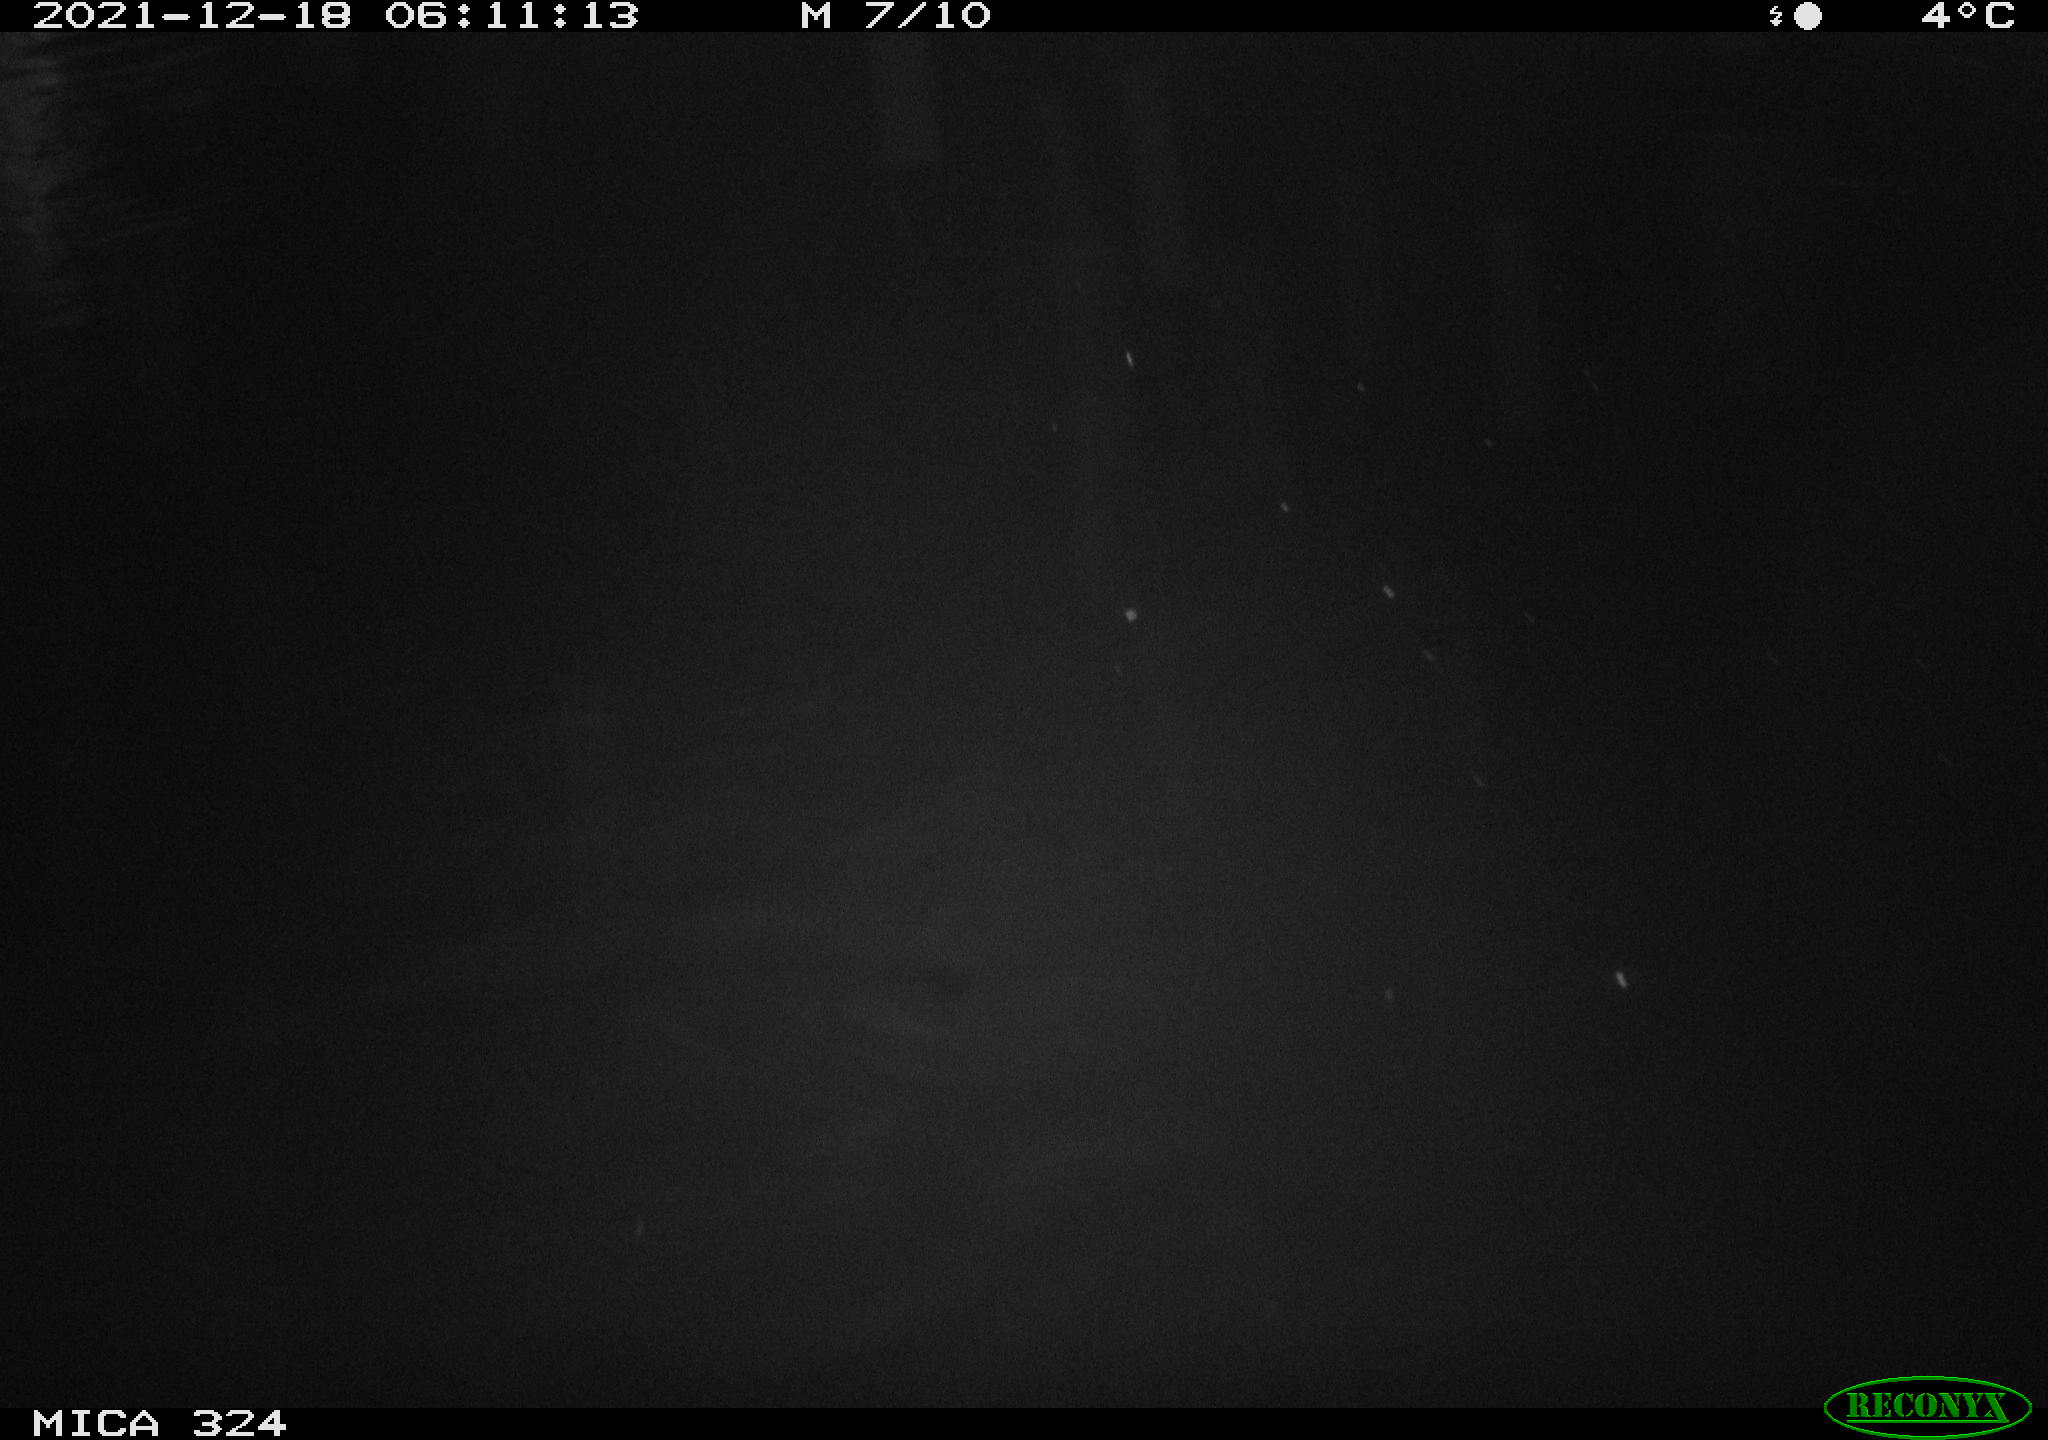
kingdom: Animalia
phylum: Chordata
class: Mammalia
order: Rodentia
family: Cricetidae
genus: Ondatra
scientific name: Ondatra zibethicus
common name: Muskrat
